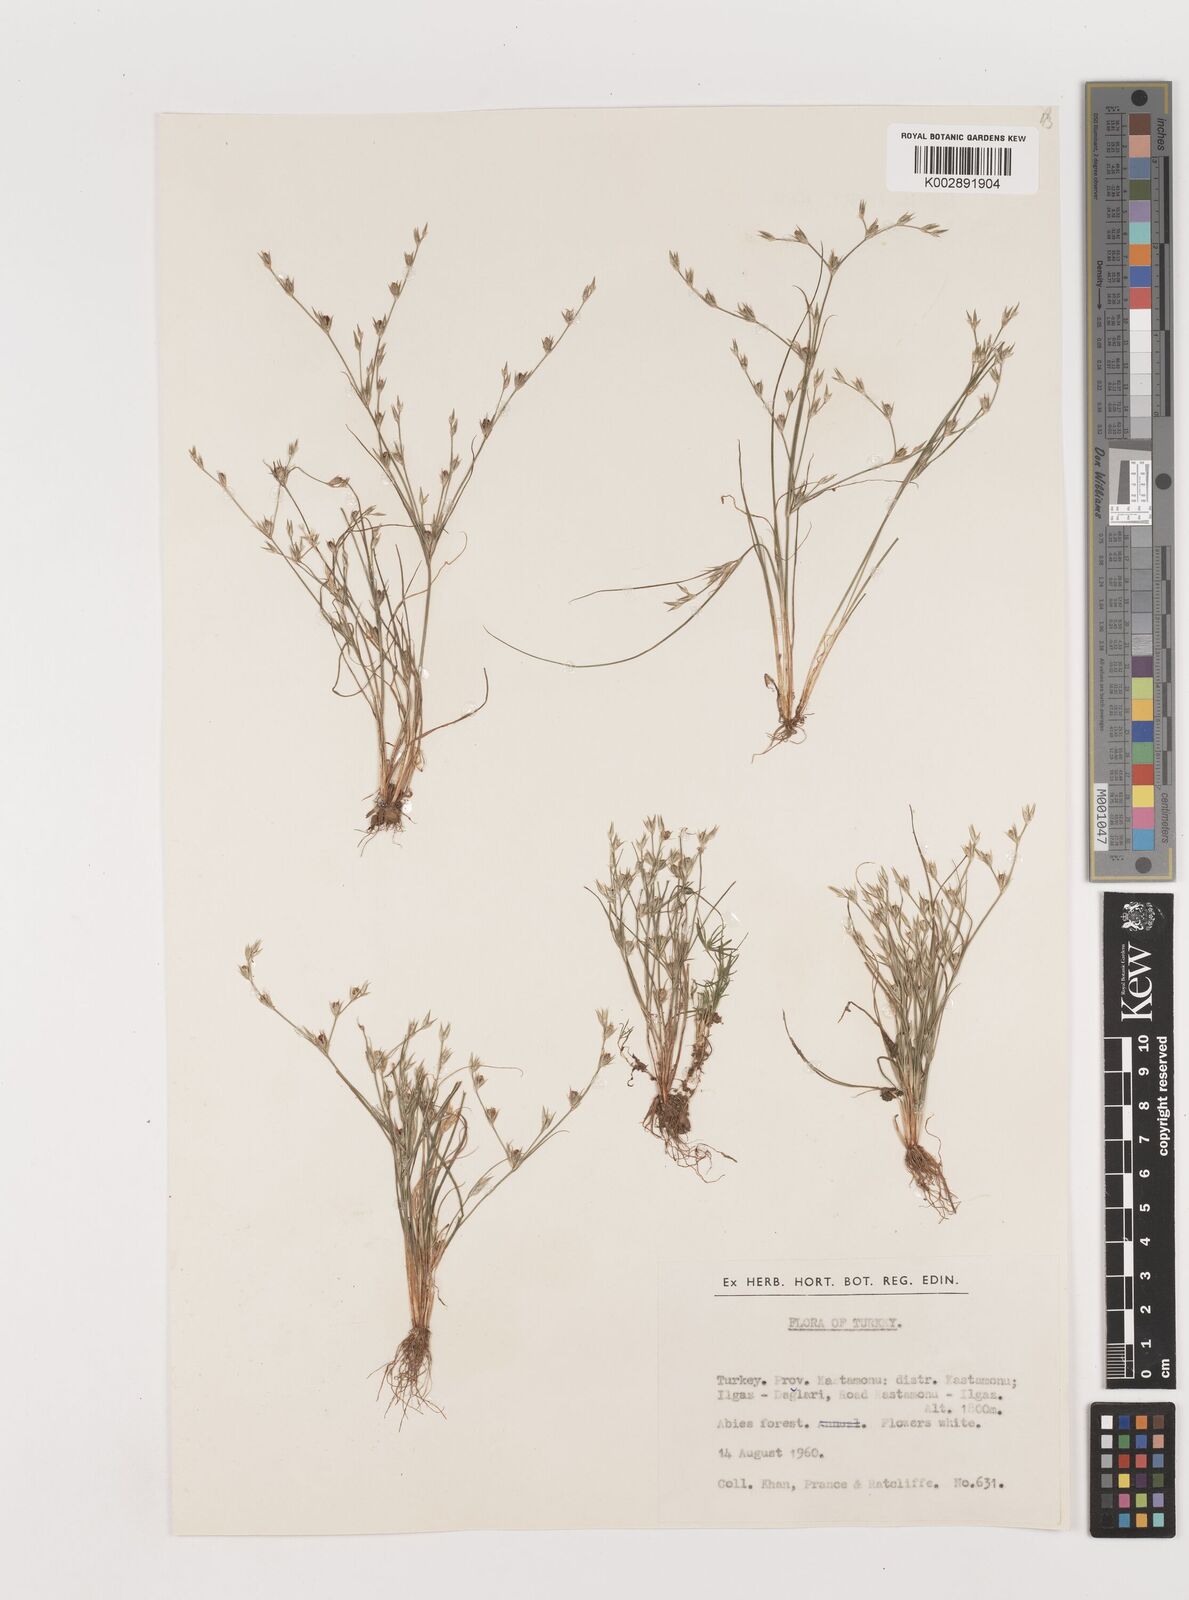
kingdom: Plantae
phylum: Tracheophyta
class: Liliopsida
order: Poales
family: Juncaceae
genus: Juncus
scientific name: Juncus
